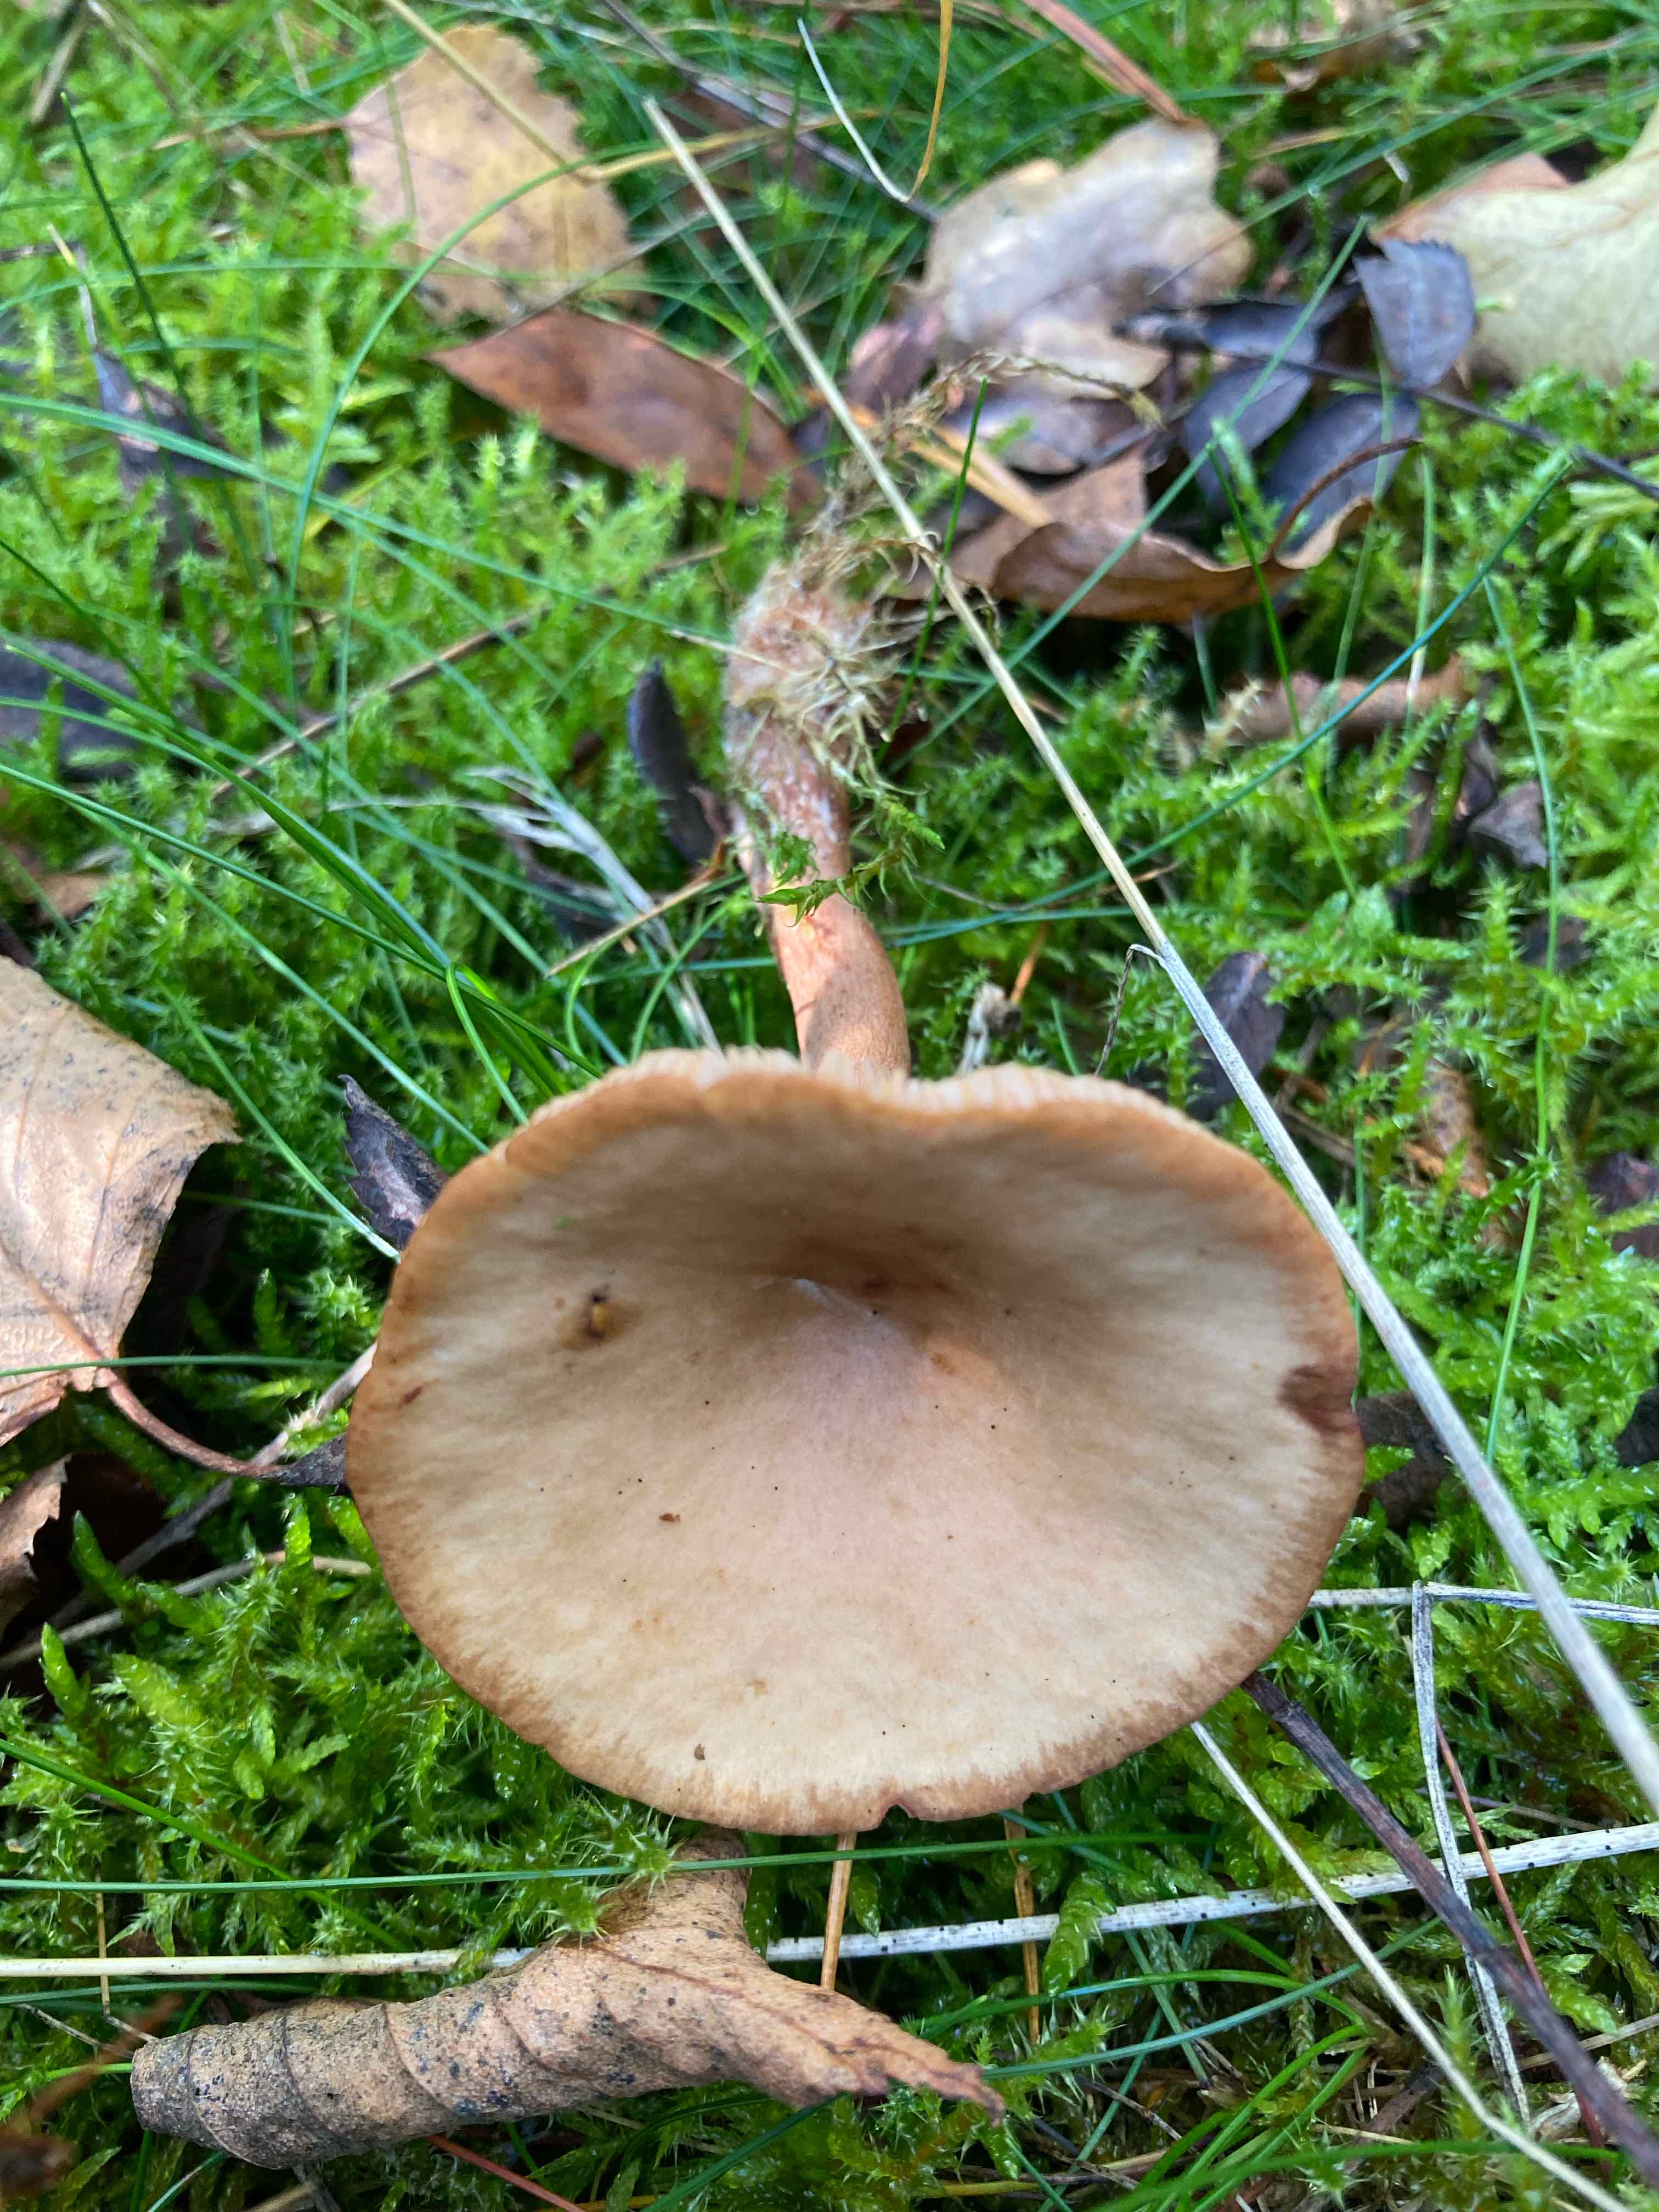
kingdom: Fungi
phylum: Basidiomycota
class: Agaricomycetes
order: Russulales
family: Russulaceae
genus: Lactarius
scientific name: Lactarius quietus
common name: ege-mælkehat
